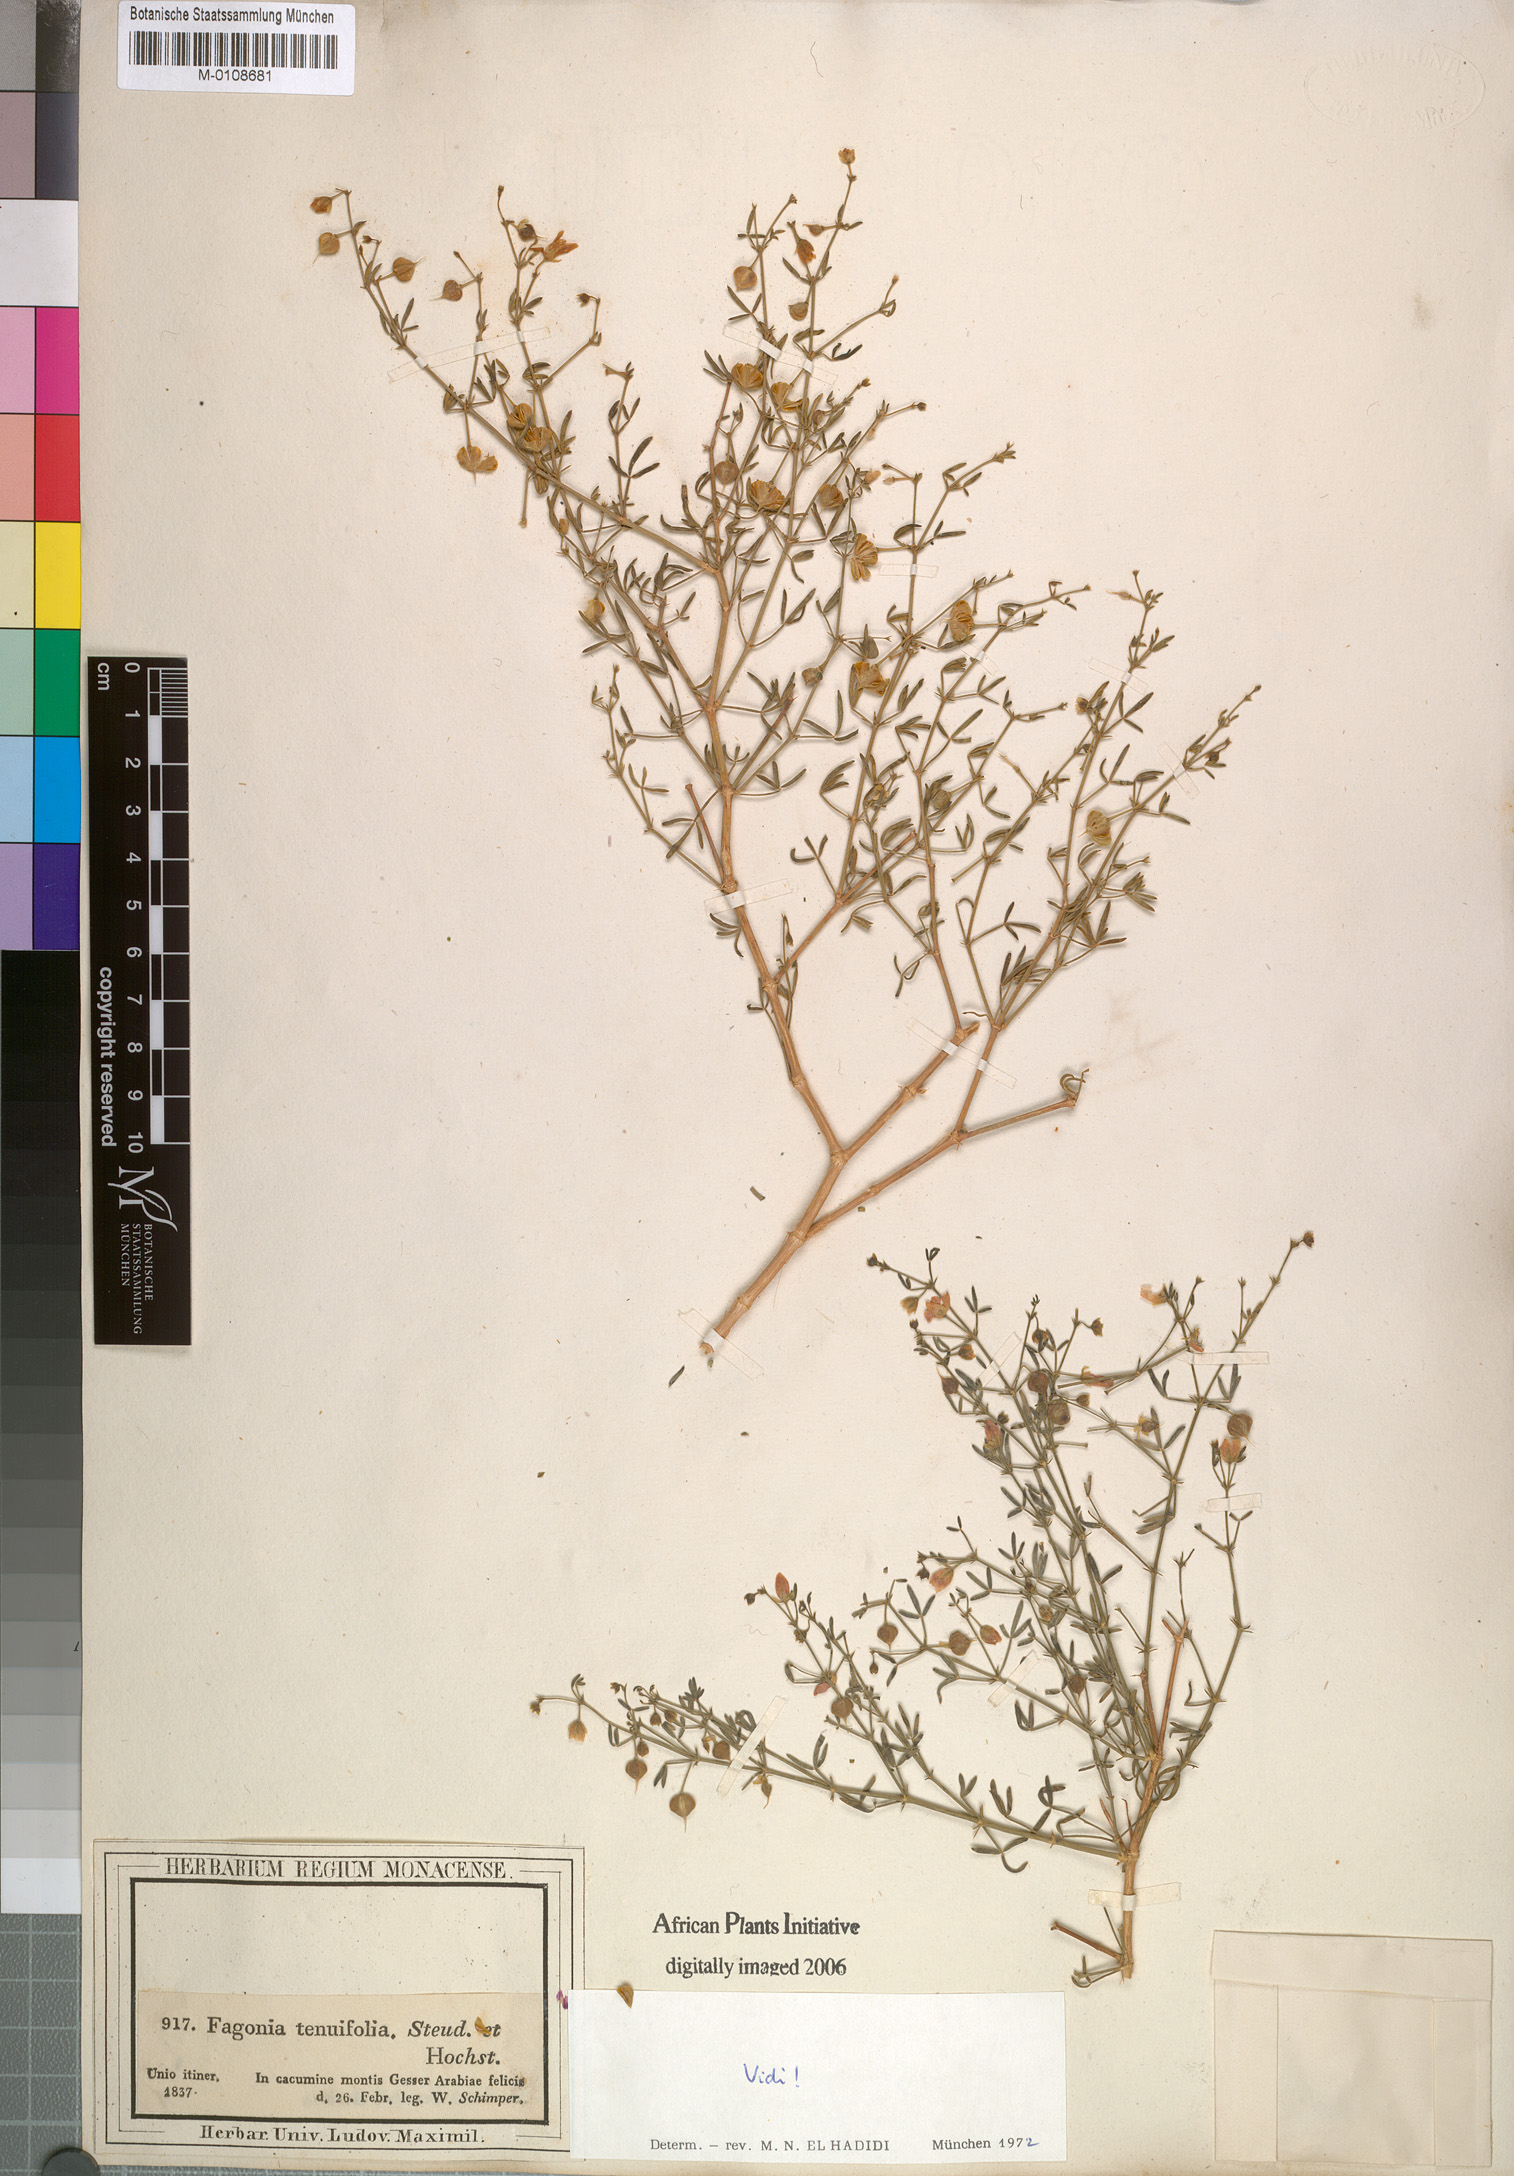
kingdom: Plantae
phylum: Tracheophyta
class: Magnoliopsida
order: Zygophyllales
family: Zygophyllaceae
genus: Fagonia
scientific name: Fagonia orientalis
